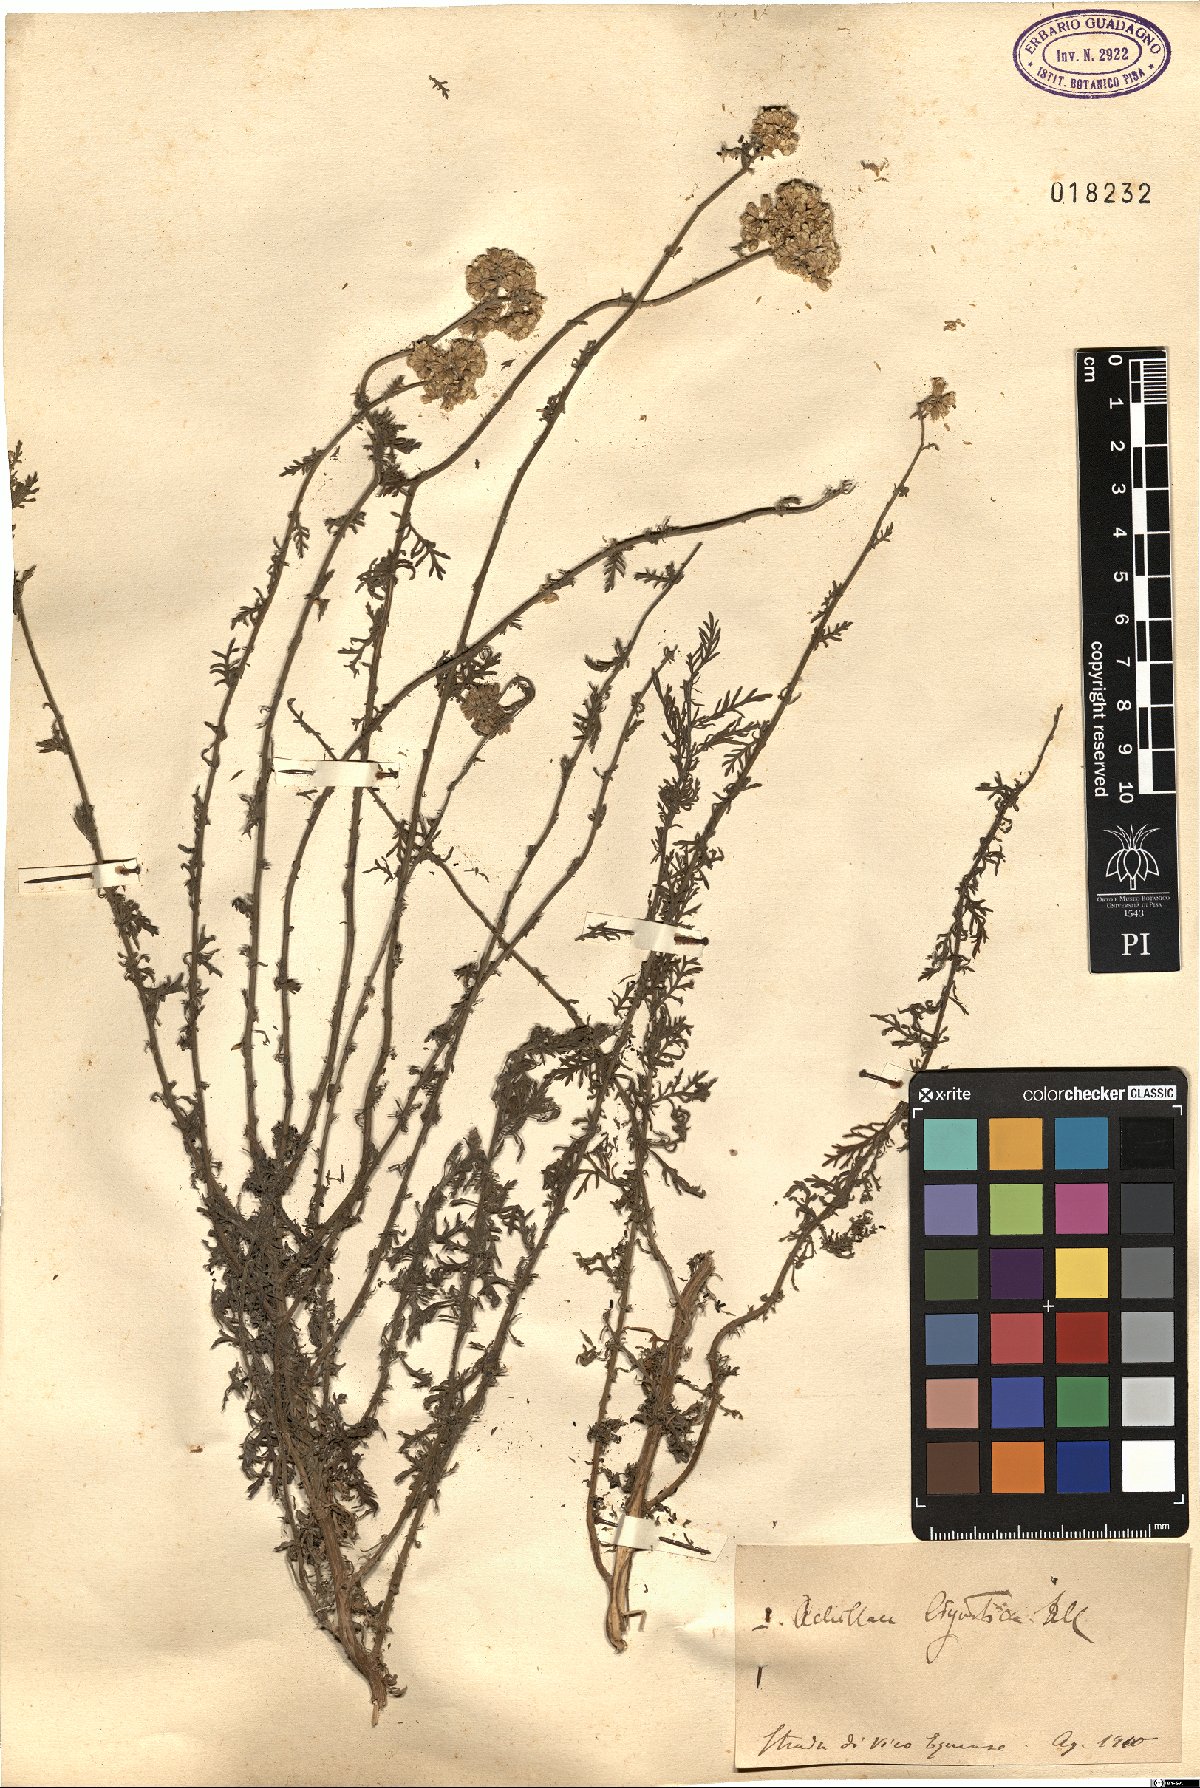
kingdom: Plantae
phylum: Tracheophyta
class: Magnoliopsida
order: Asterales
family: Asteraceae
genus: Achillea
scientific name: Achillea ligustica
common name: Southern yarrow
